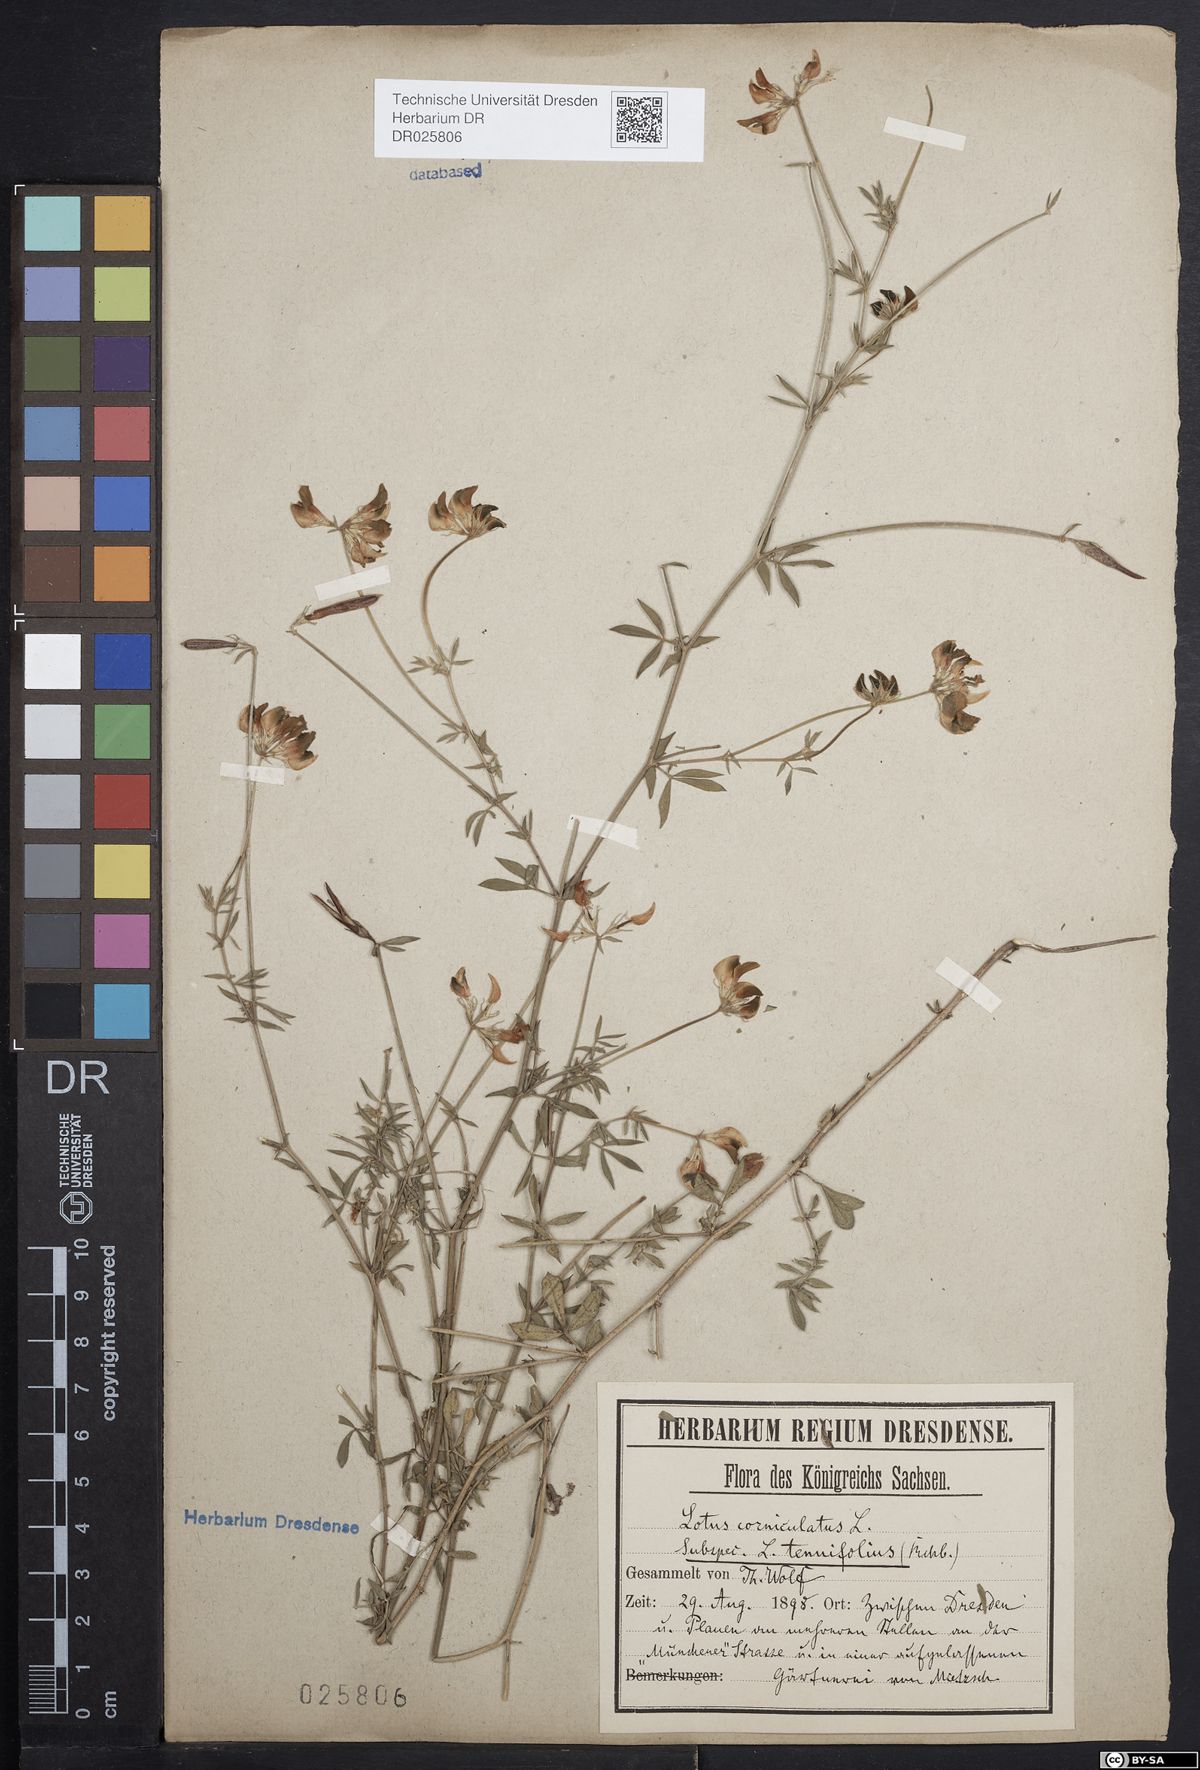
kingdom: Plantae
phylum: Tracheophyta
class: Magnoliopsida
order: Fabales
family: Fabaceae
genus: Lotus
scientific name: Lotus tenuis
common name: Narrow-leaved bird's-foot-trefoil
